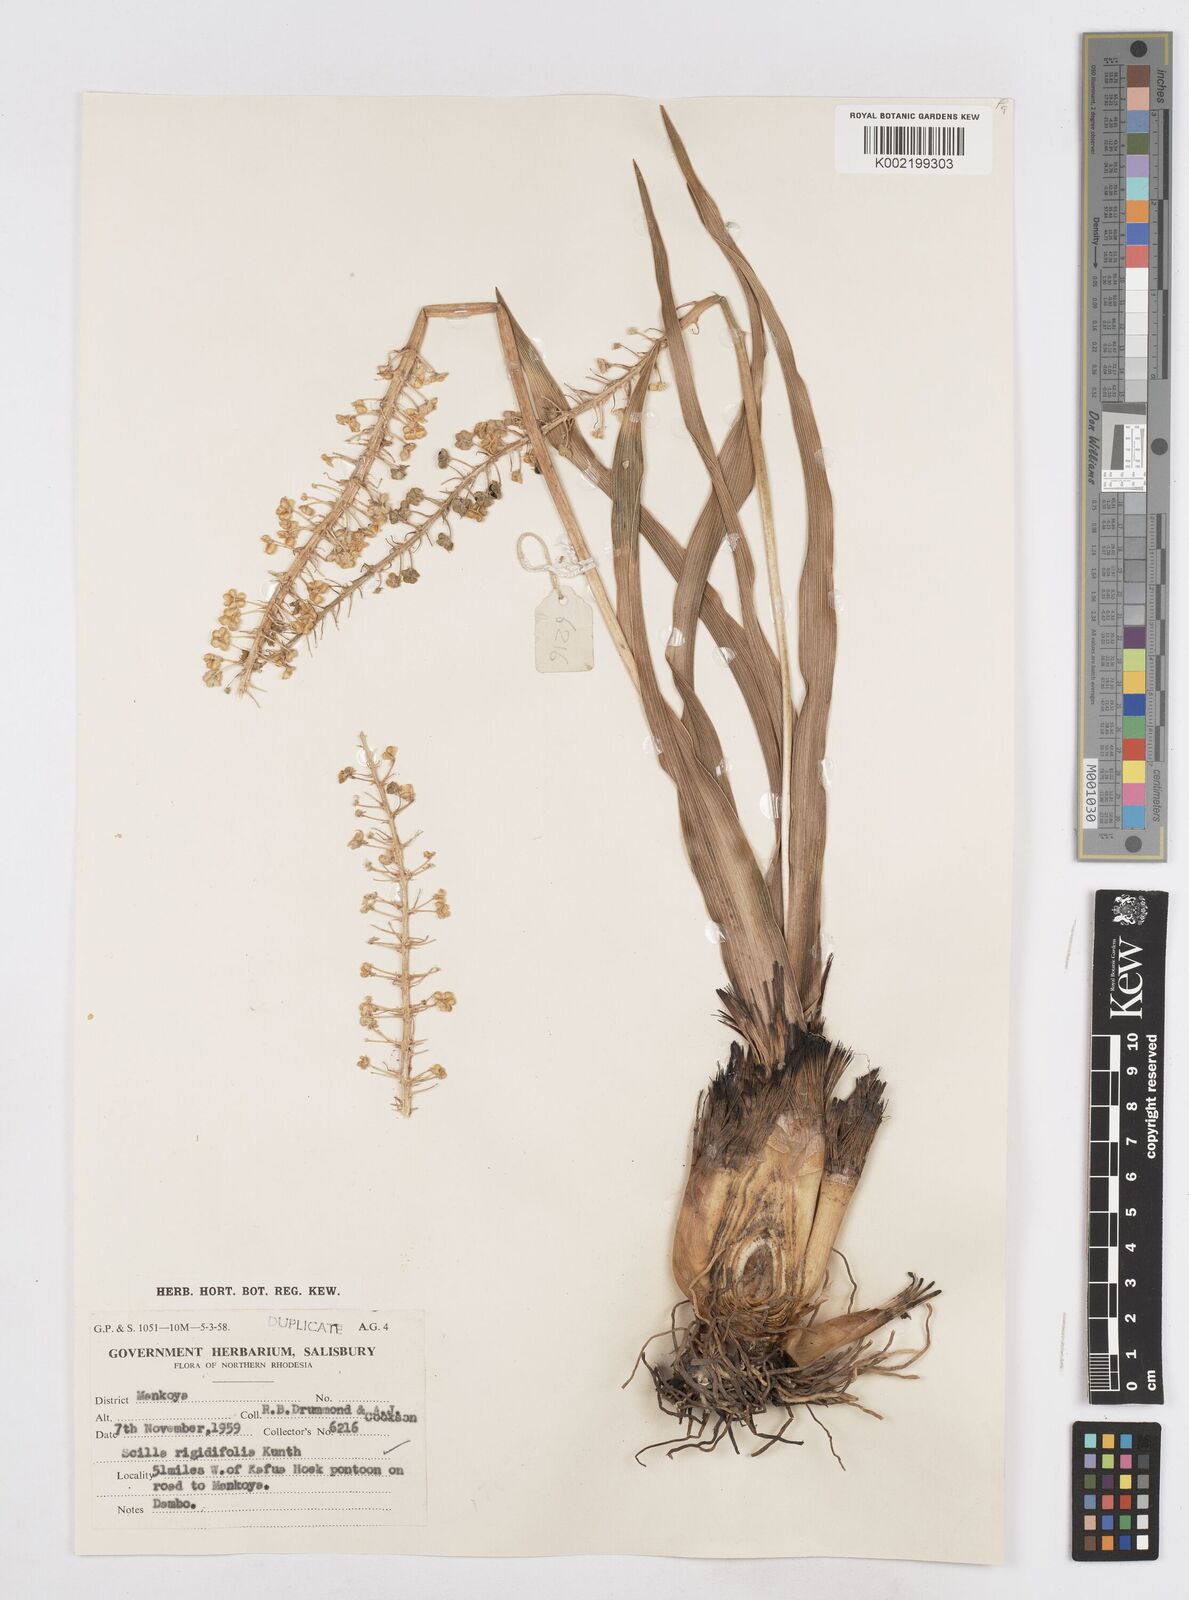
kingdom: Plantae
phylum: Tracheophyta
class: Liliopsida
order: Asparagales
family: Asparagaceae
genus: Schizocarphus
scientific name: Schizocarphus nervosus
